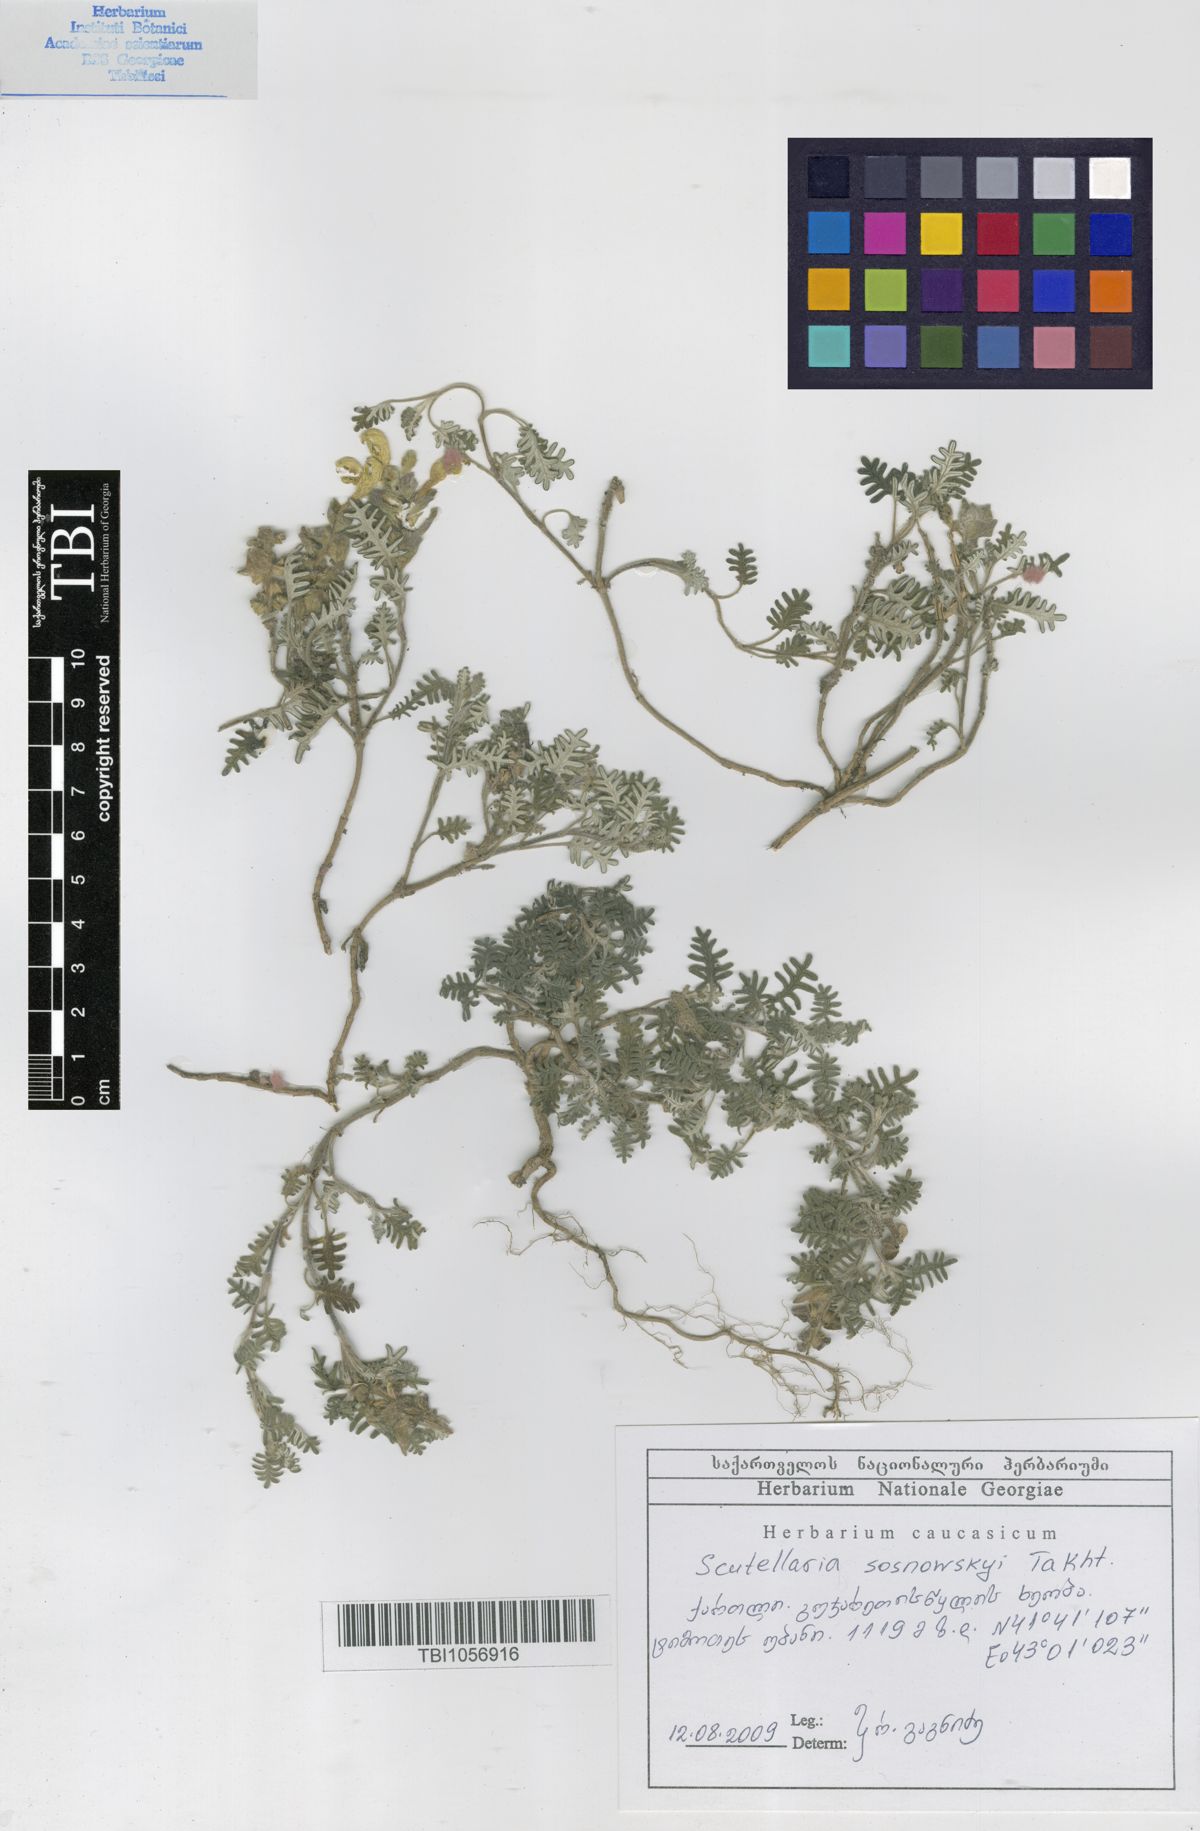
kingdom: Plantae
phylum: Tracheophyta
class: Magnoliopsida
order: Lamiales
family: Lamiaceae
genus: Scutellaria
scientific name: Scutellaria sosnowskyi
